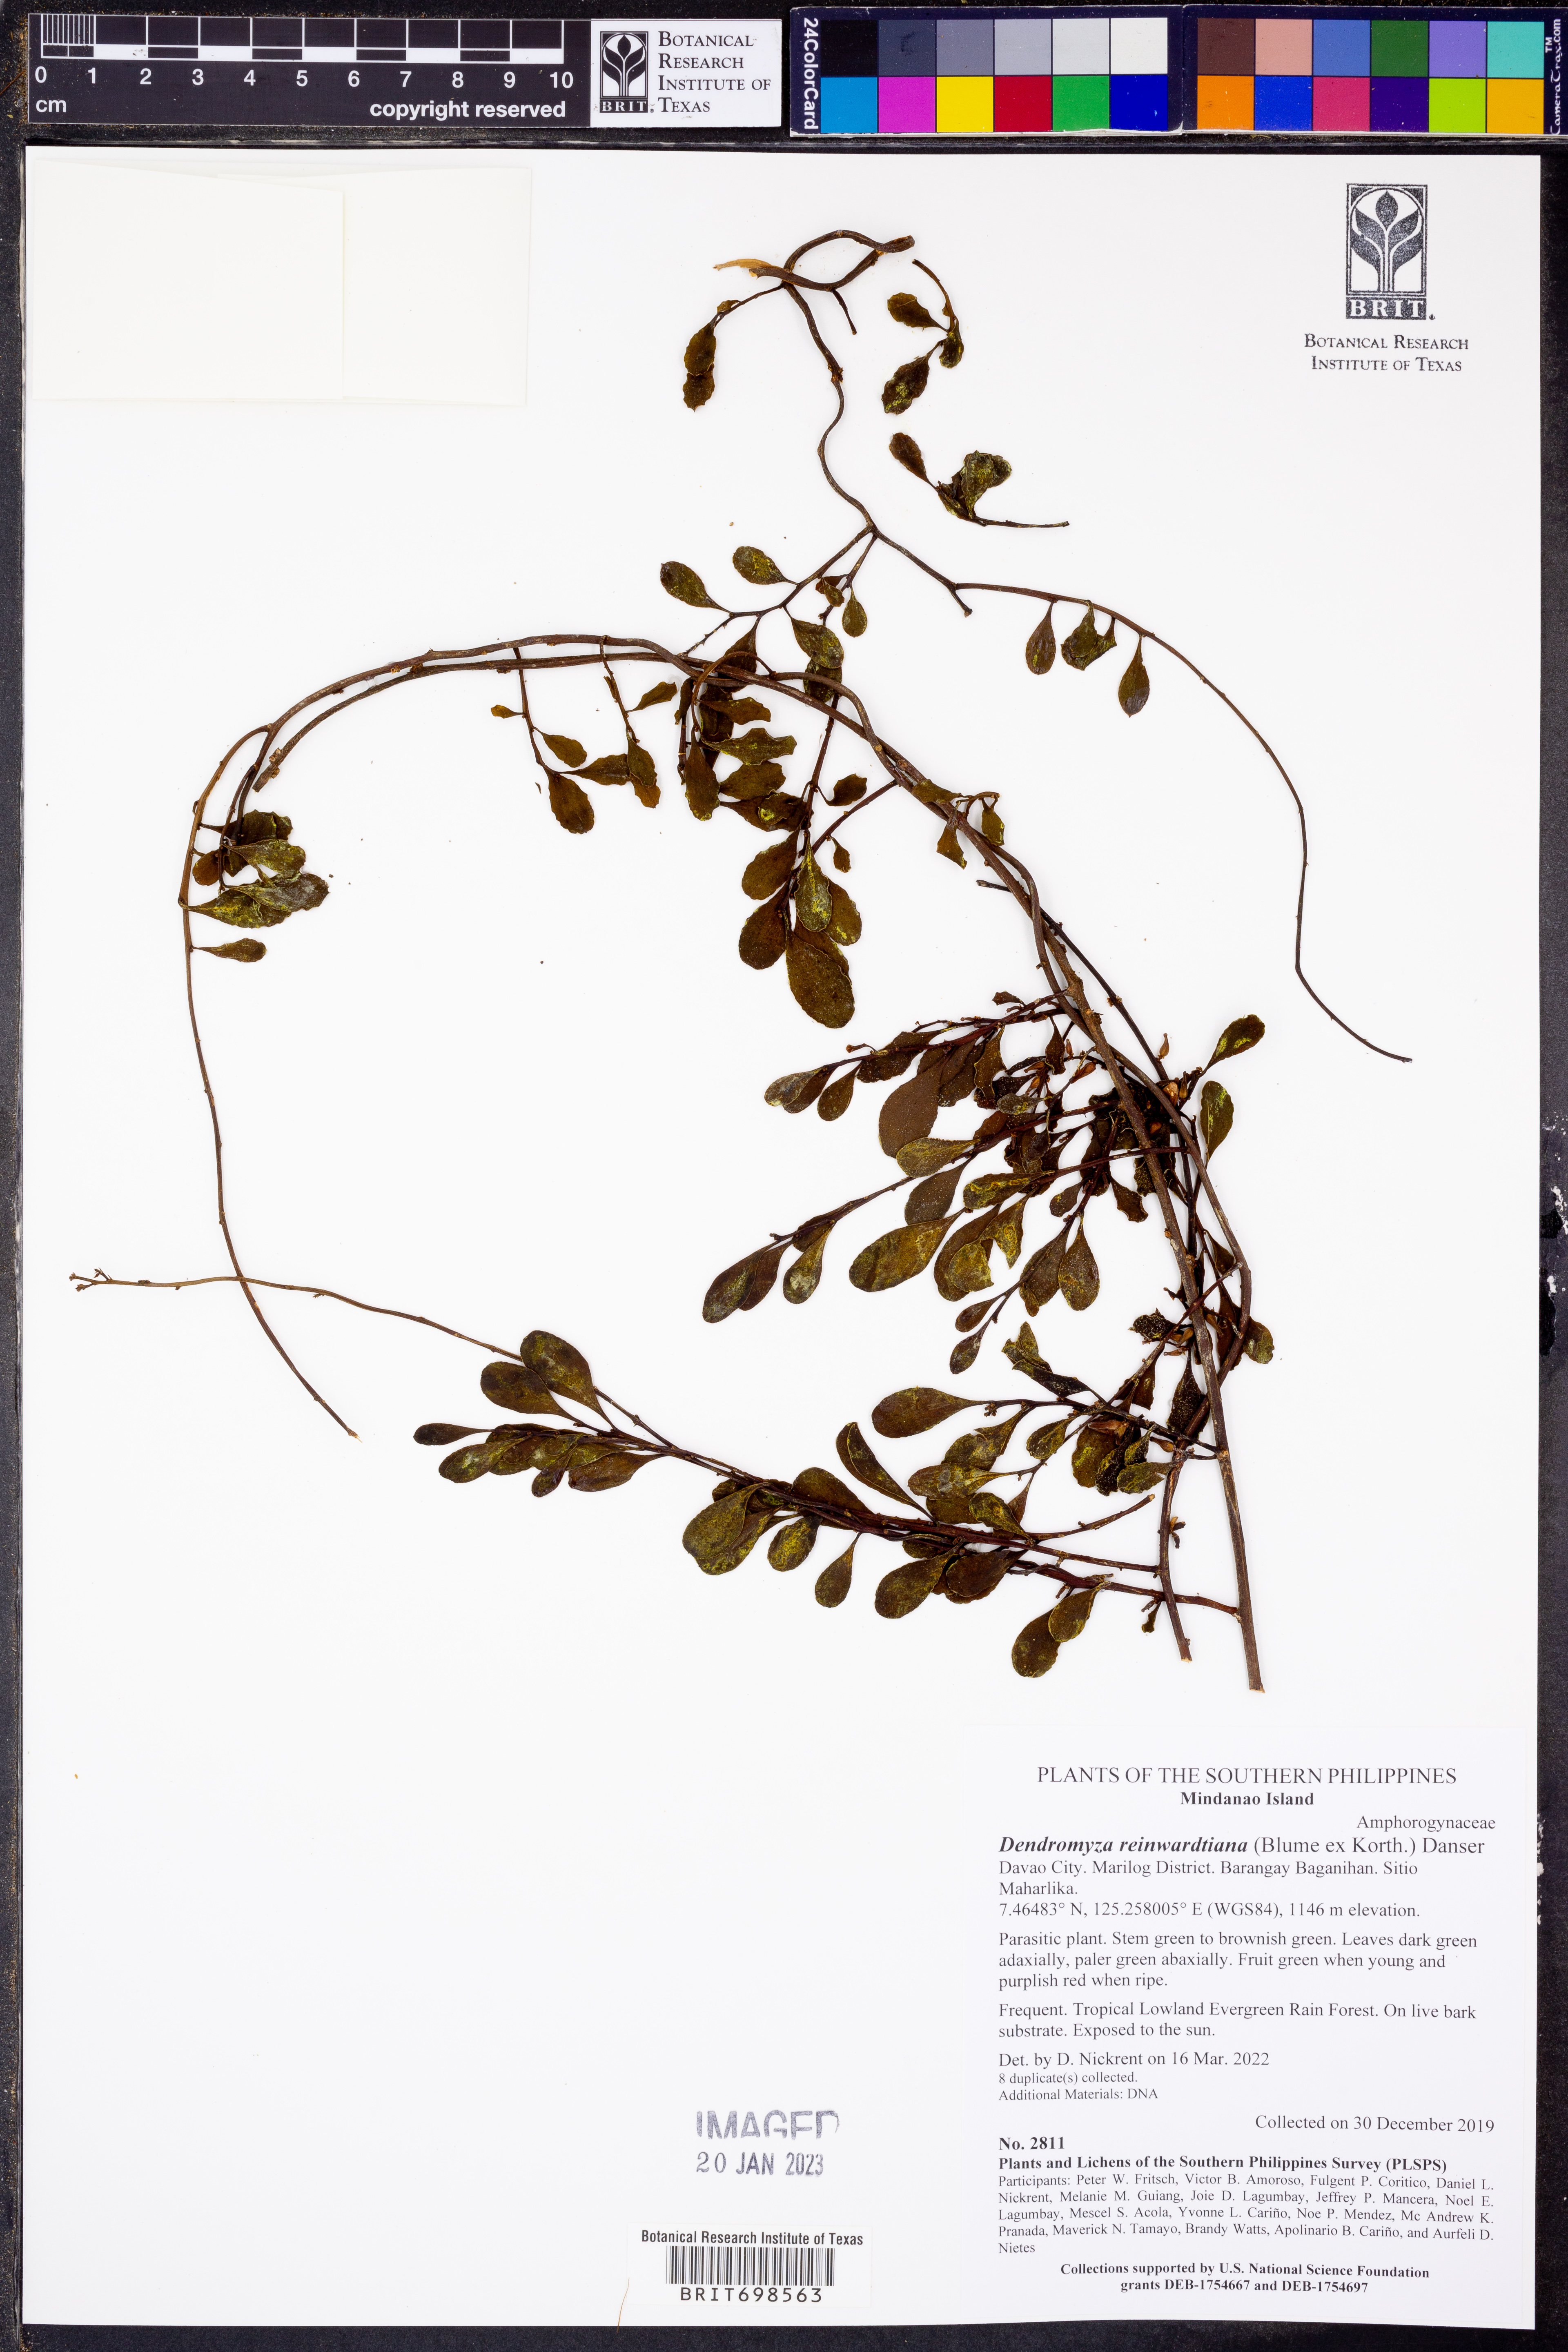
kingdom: Plantae
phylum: Tracheophyta
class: Magnoliopsida
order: Santalales
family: Amphorogynaceae
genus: Dendromyza
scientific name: Dendromyza reinwardtiana
